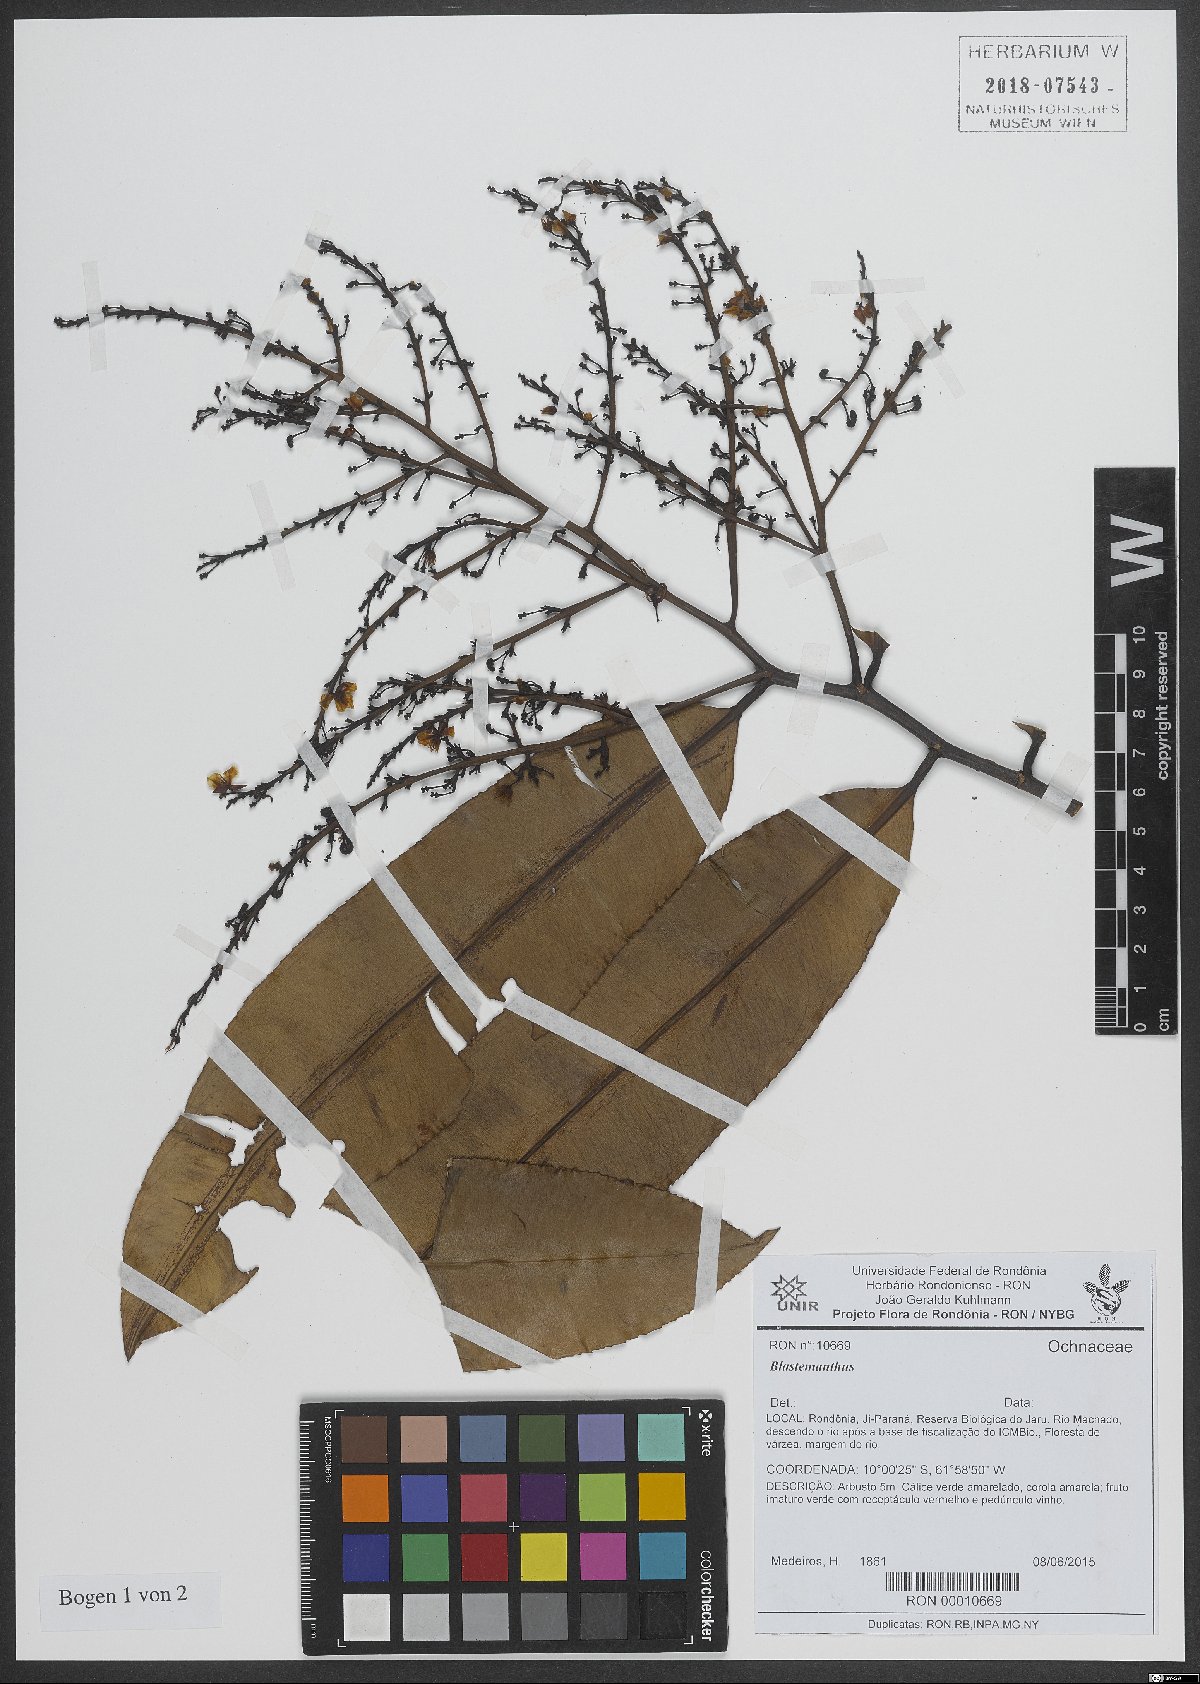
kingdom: Plantae
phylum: Tracheophyta
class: Magnoliopsida
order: Malpighiales
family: Ochnaceae
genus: Blastemanthus
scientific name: Blastemanthus
